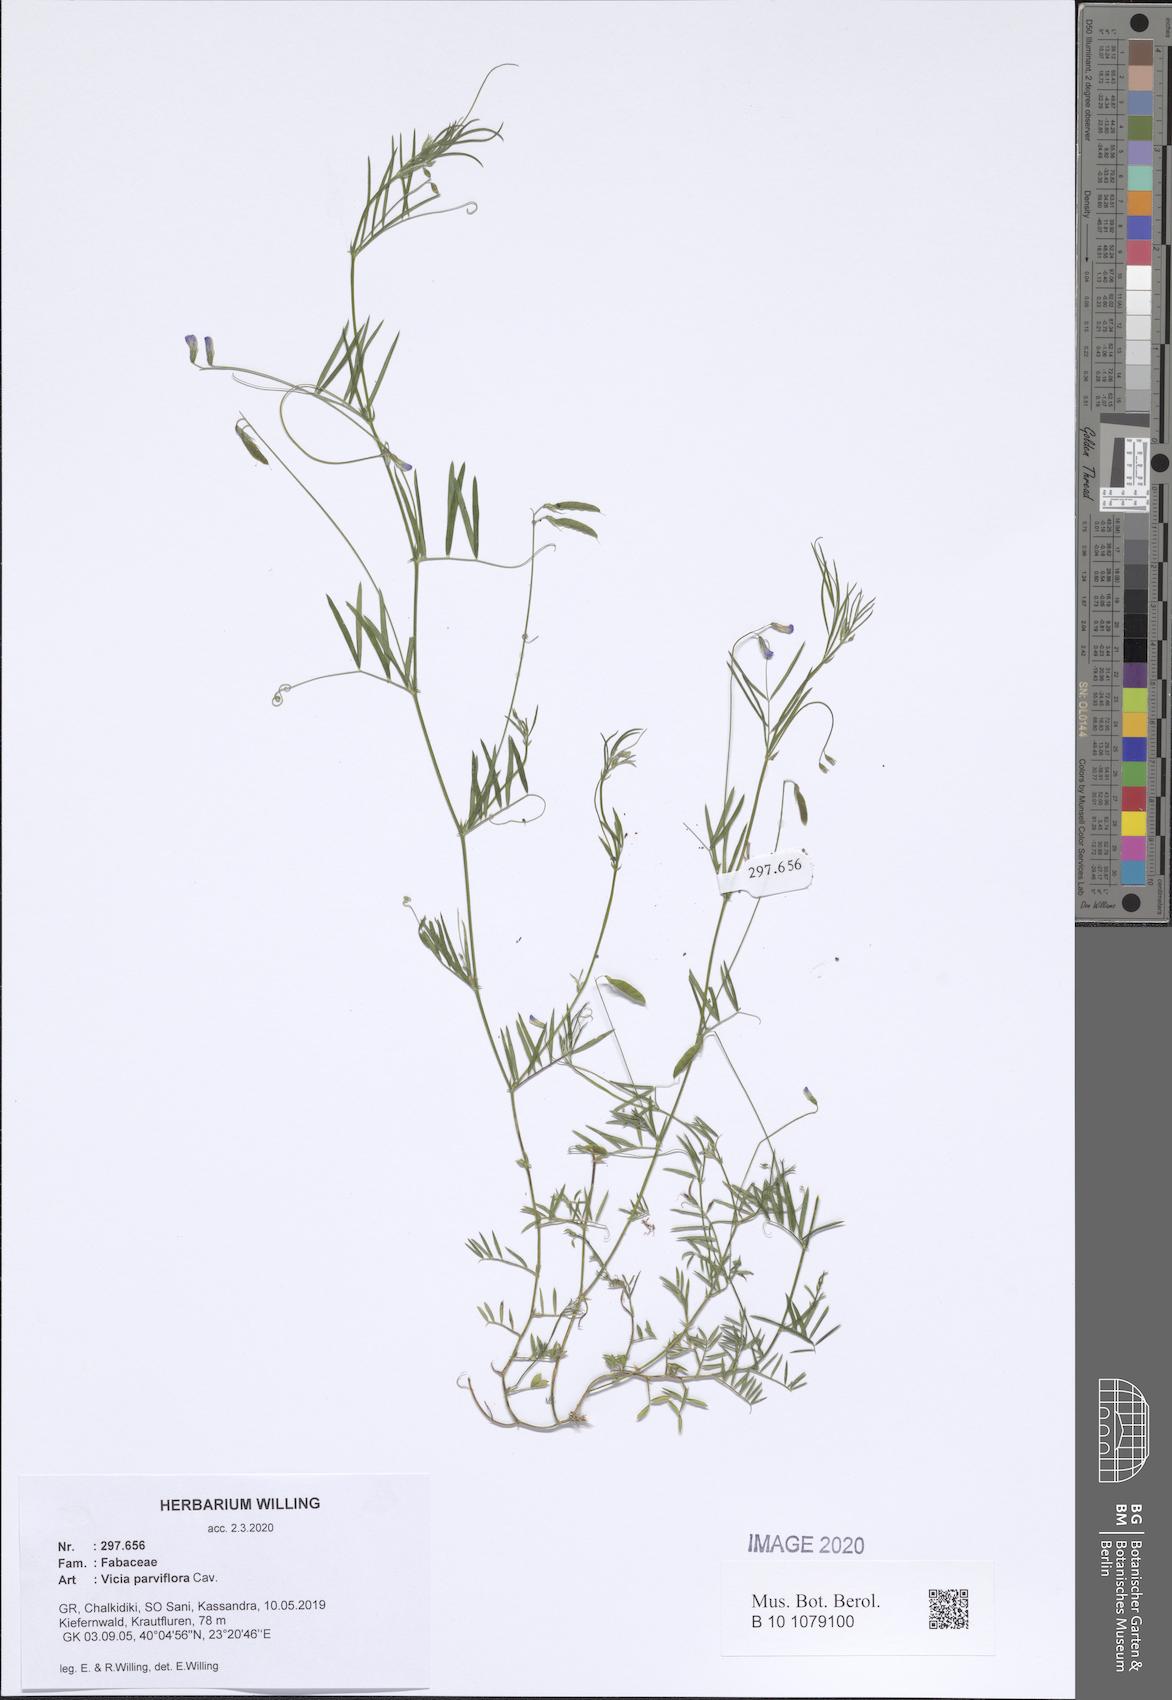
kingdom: Plantae
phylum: Tracheophyta
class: Magnoliopsida
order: Fabales
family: Fabaceae
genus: Vicia
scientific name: Vicia parviflora
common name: Slender tare
